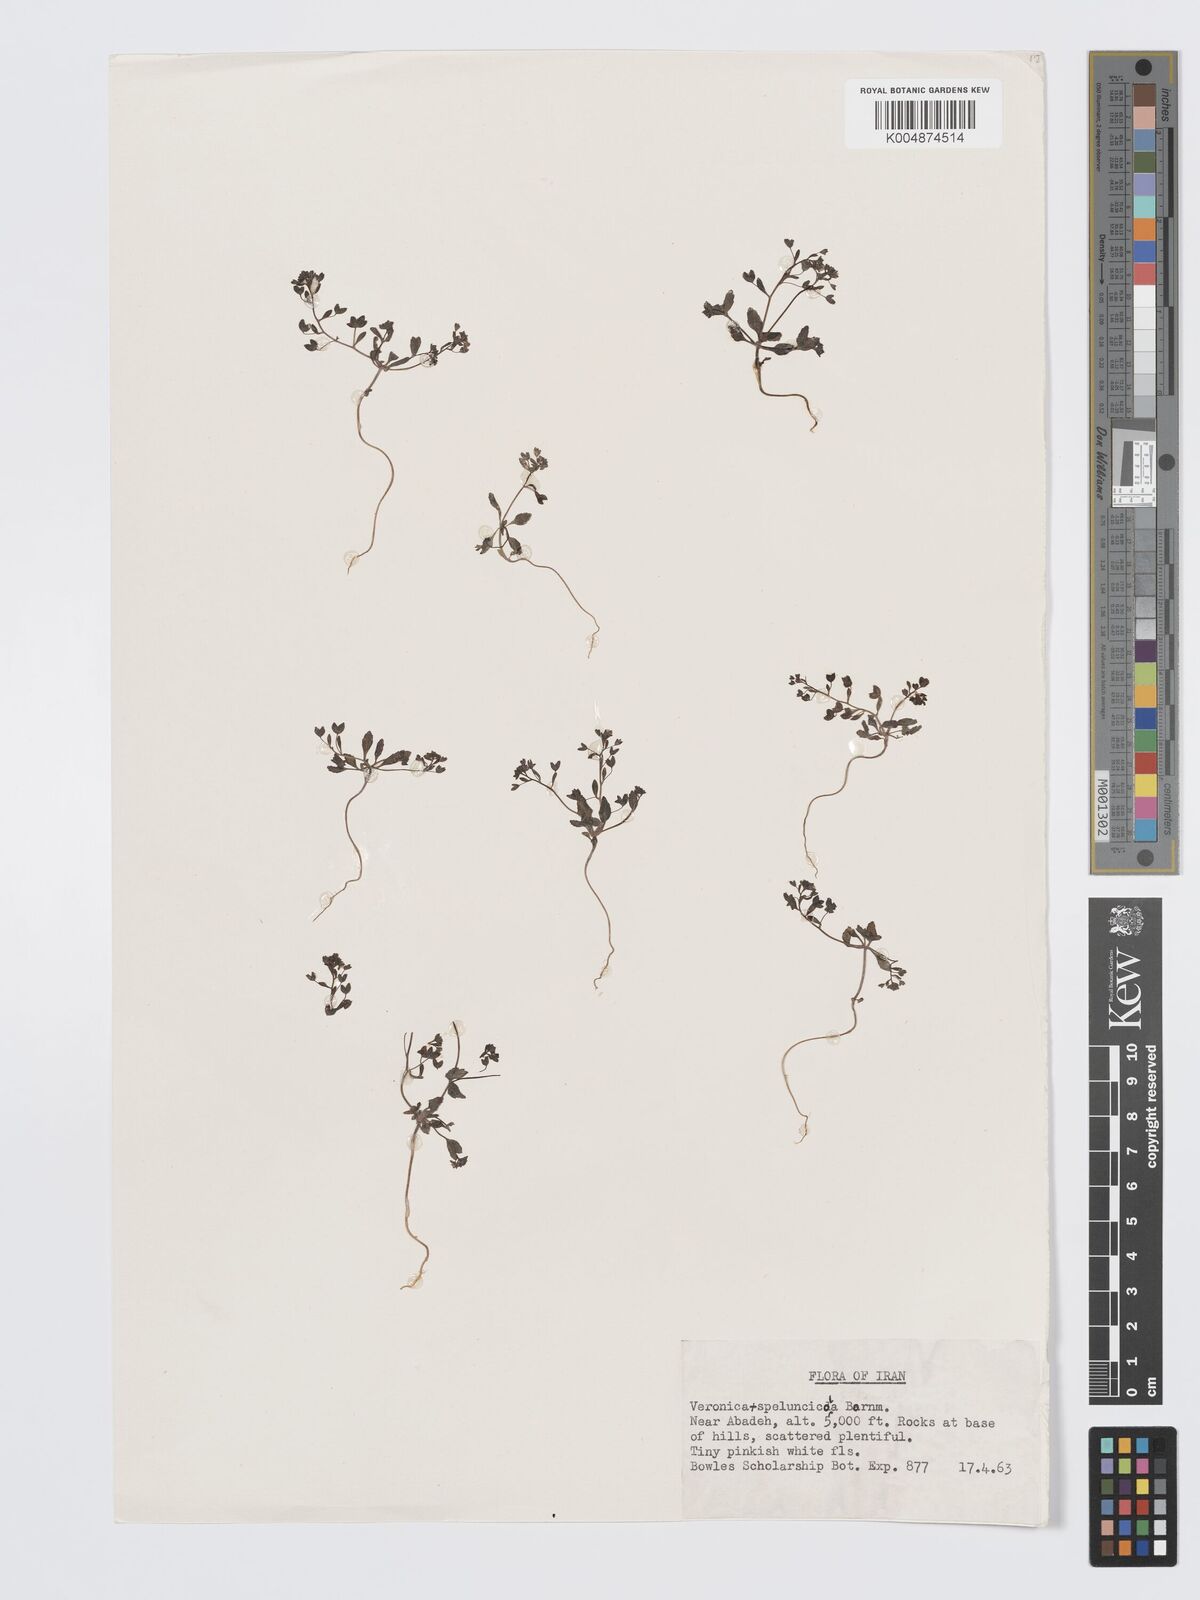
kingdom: Plantae
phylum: Tracheophyta
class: Magnoliopsida
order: Lamiales
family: Plantaginaceae
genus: Veronica
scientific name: Veronica macropoda
